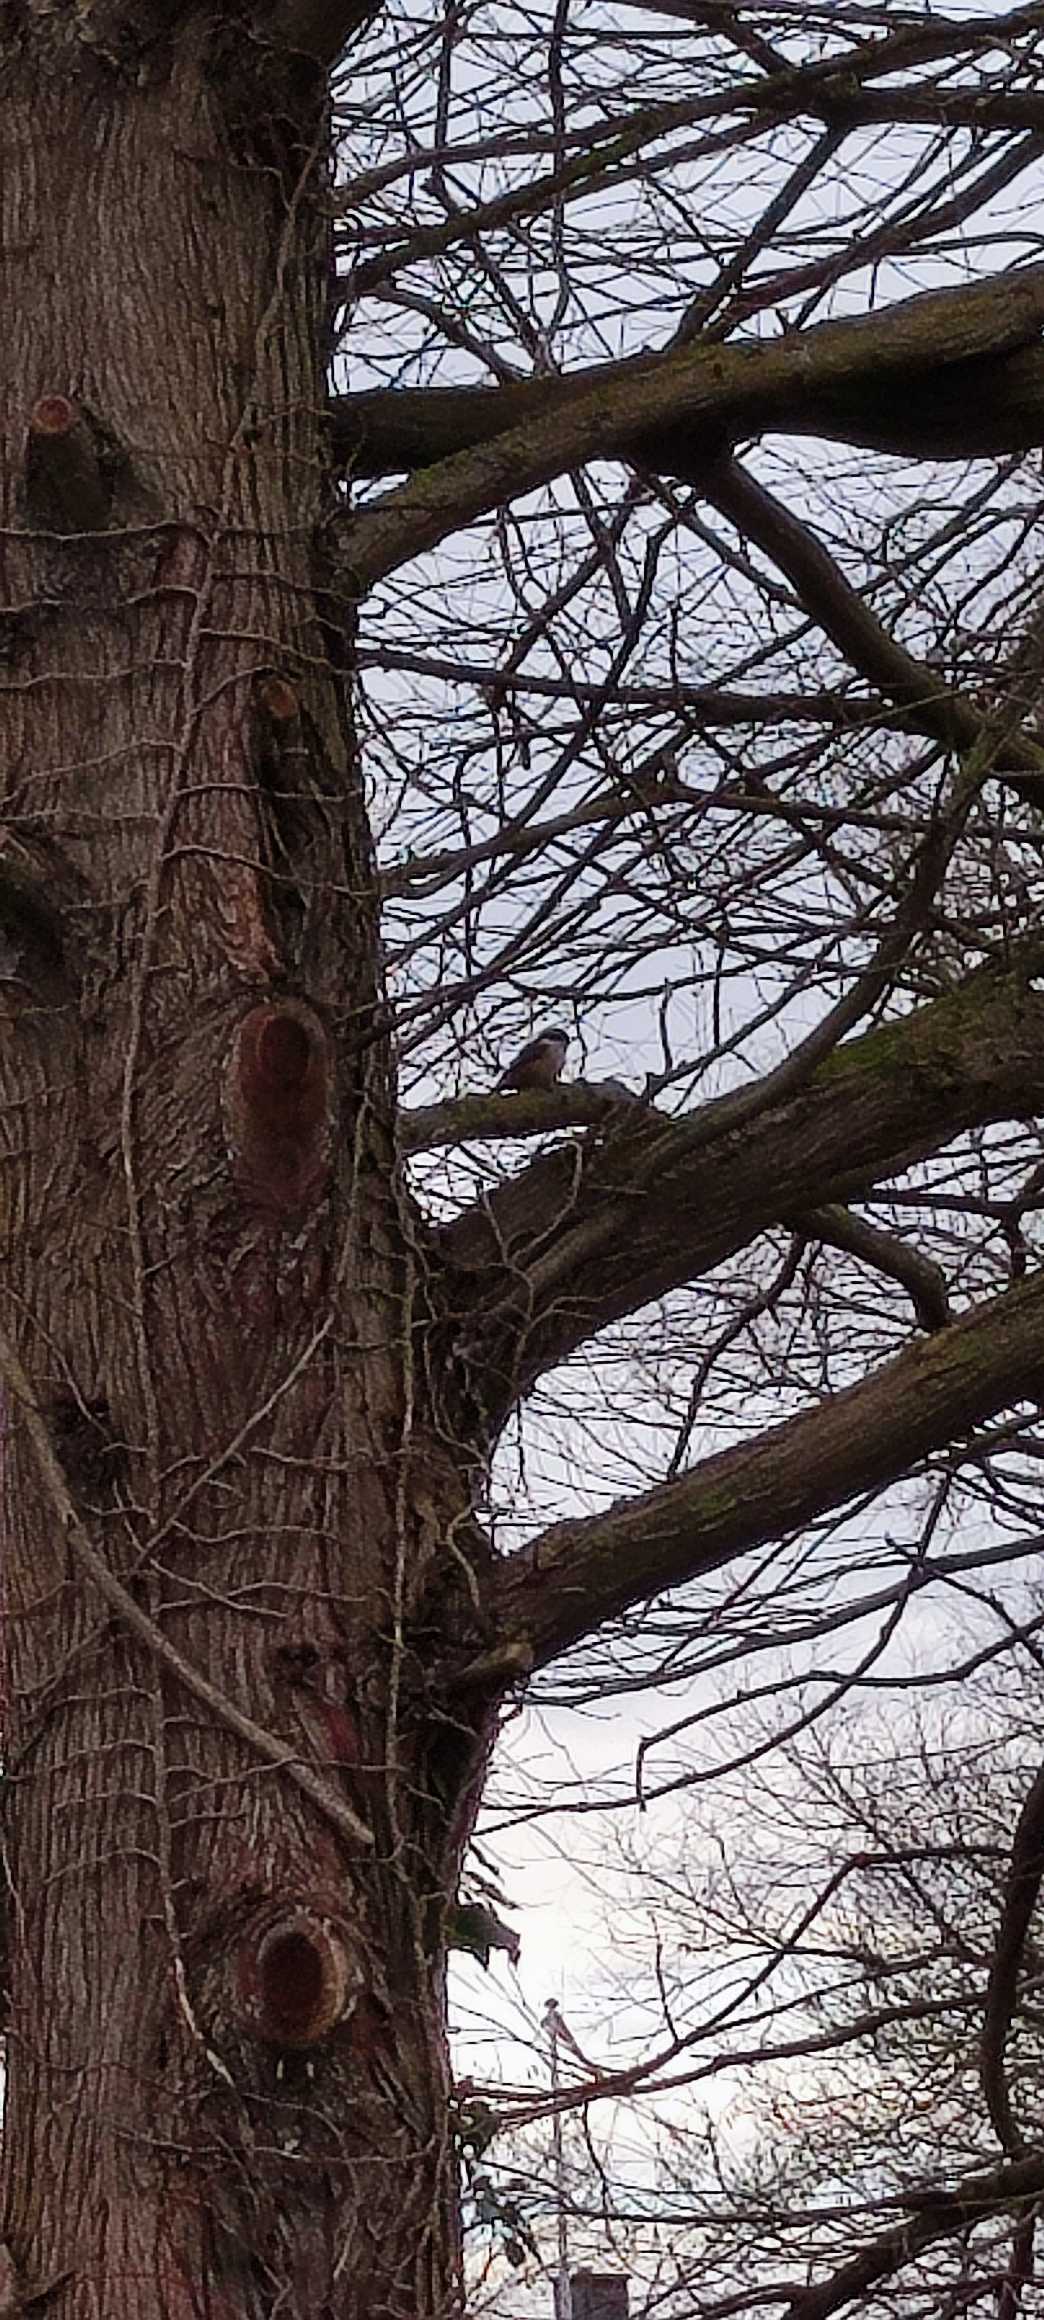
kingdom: Animalia
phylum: Chordata
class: Aves
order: Passeriformes
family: Sittidae
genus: Sitta
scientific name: Sitta europaea
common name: Spætmejse
